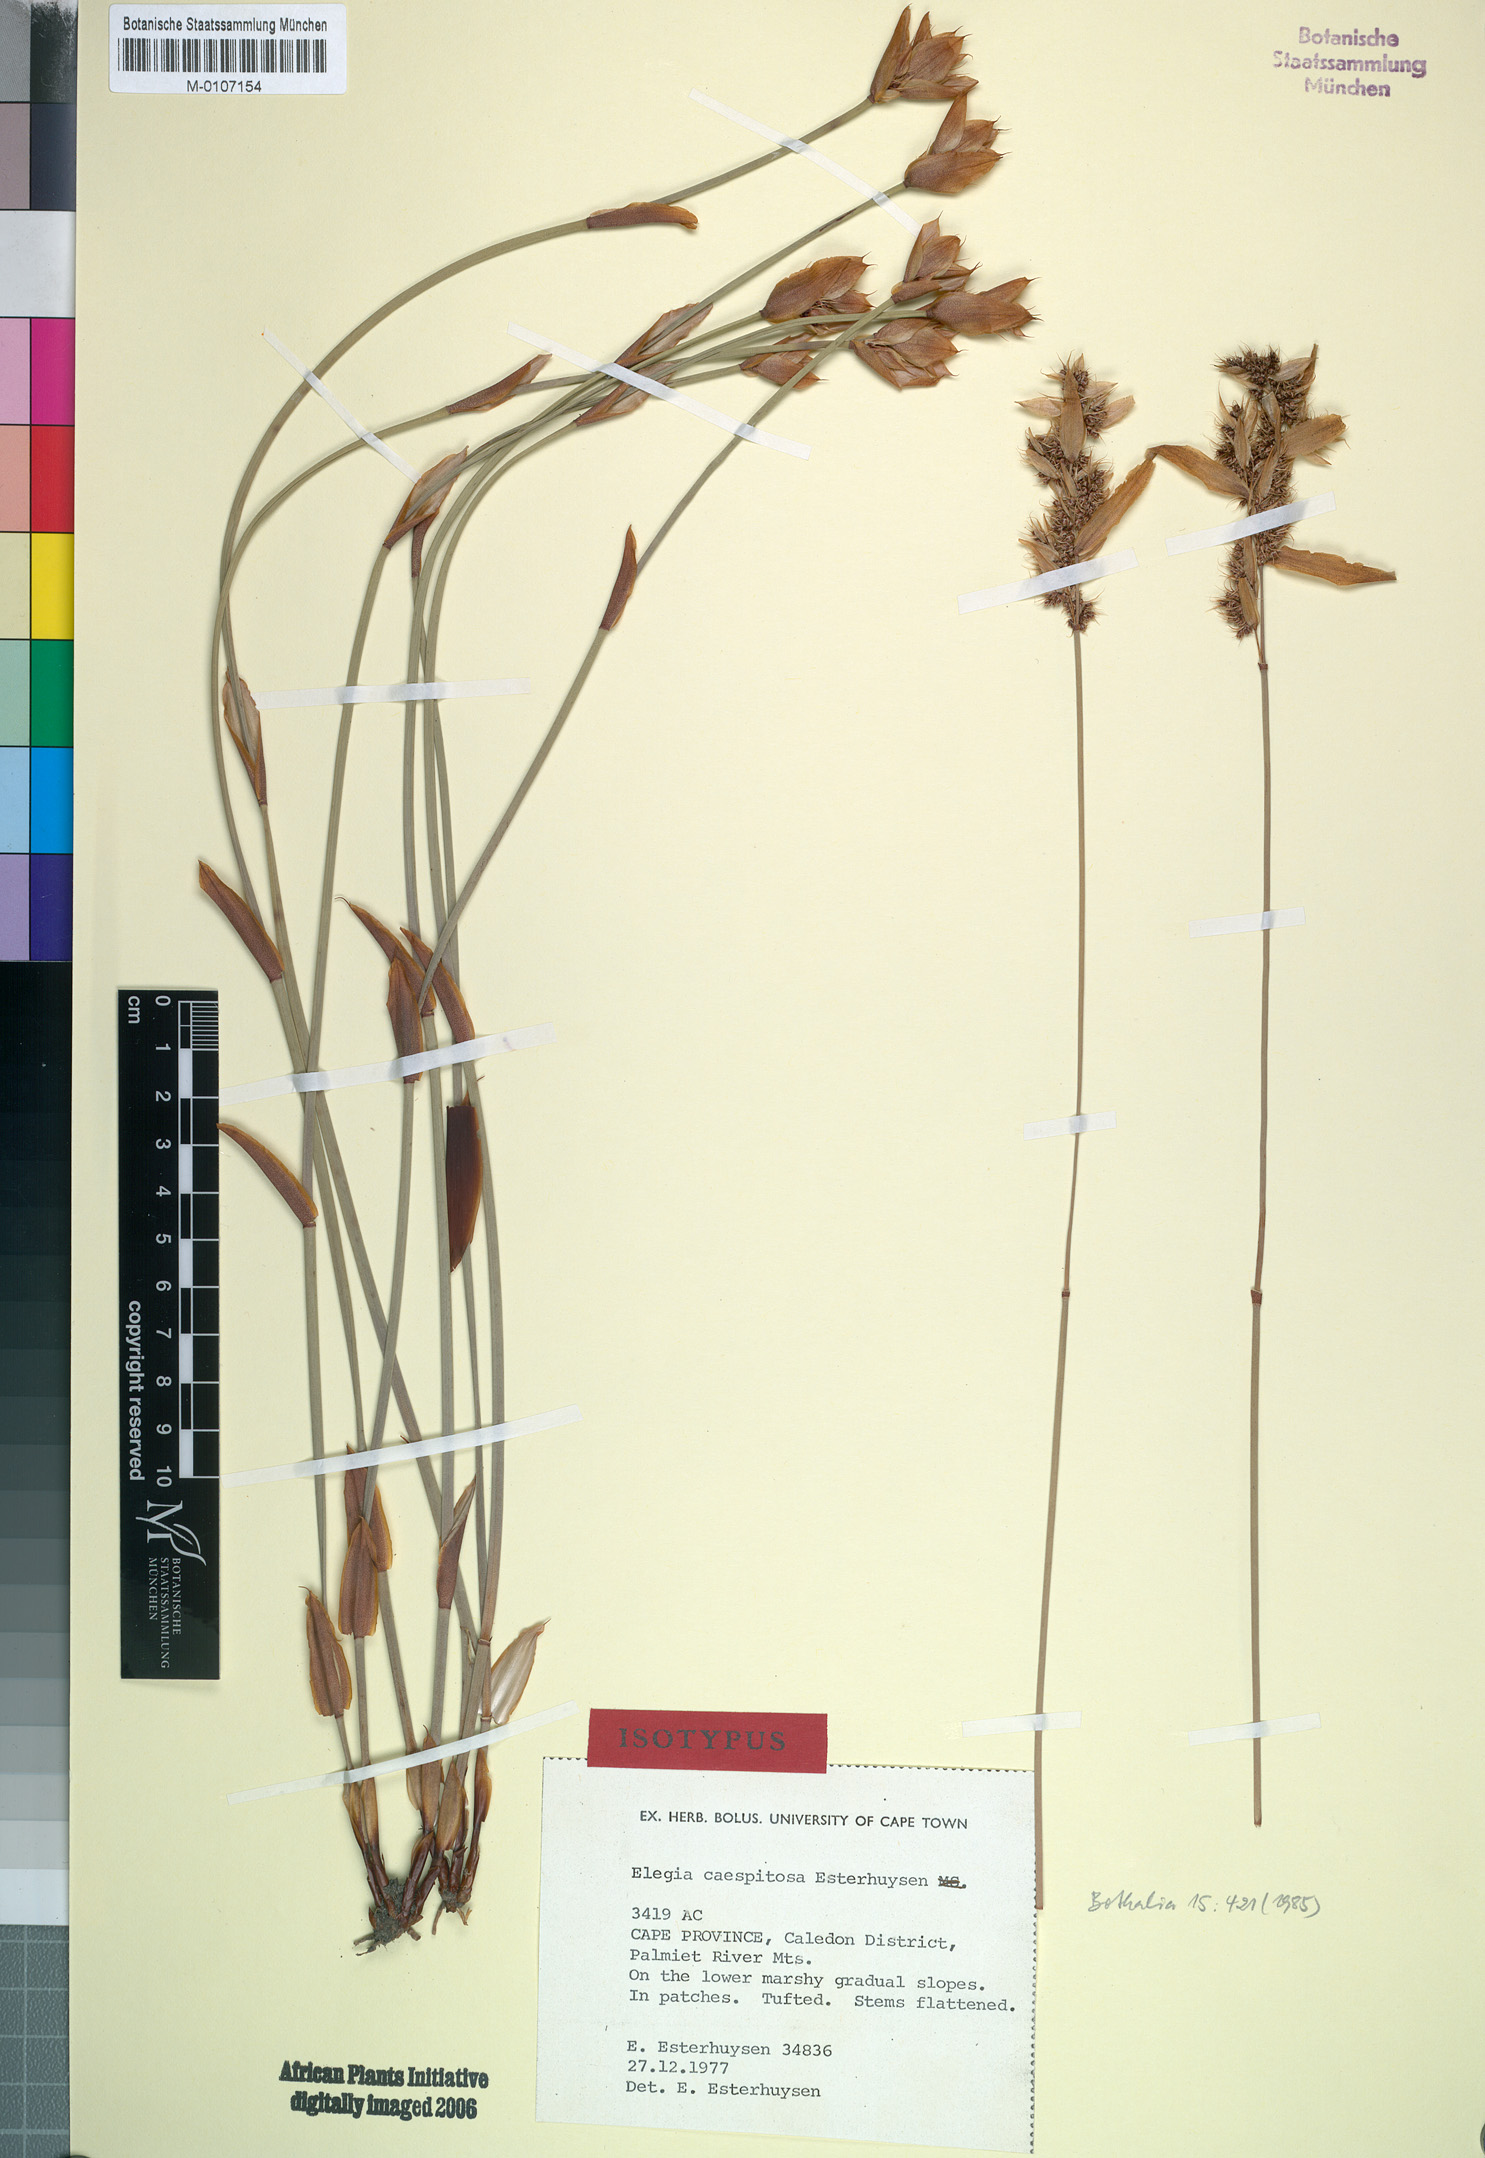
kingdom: Plantae
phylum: Tracheophyta
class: Liliopsida
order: Poales
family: Restionaceae
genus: Elegia
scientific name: Elegia caespitosa
